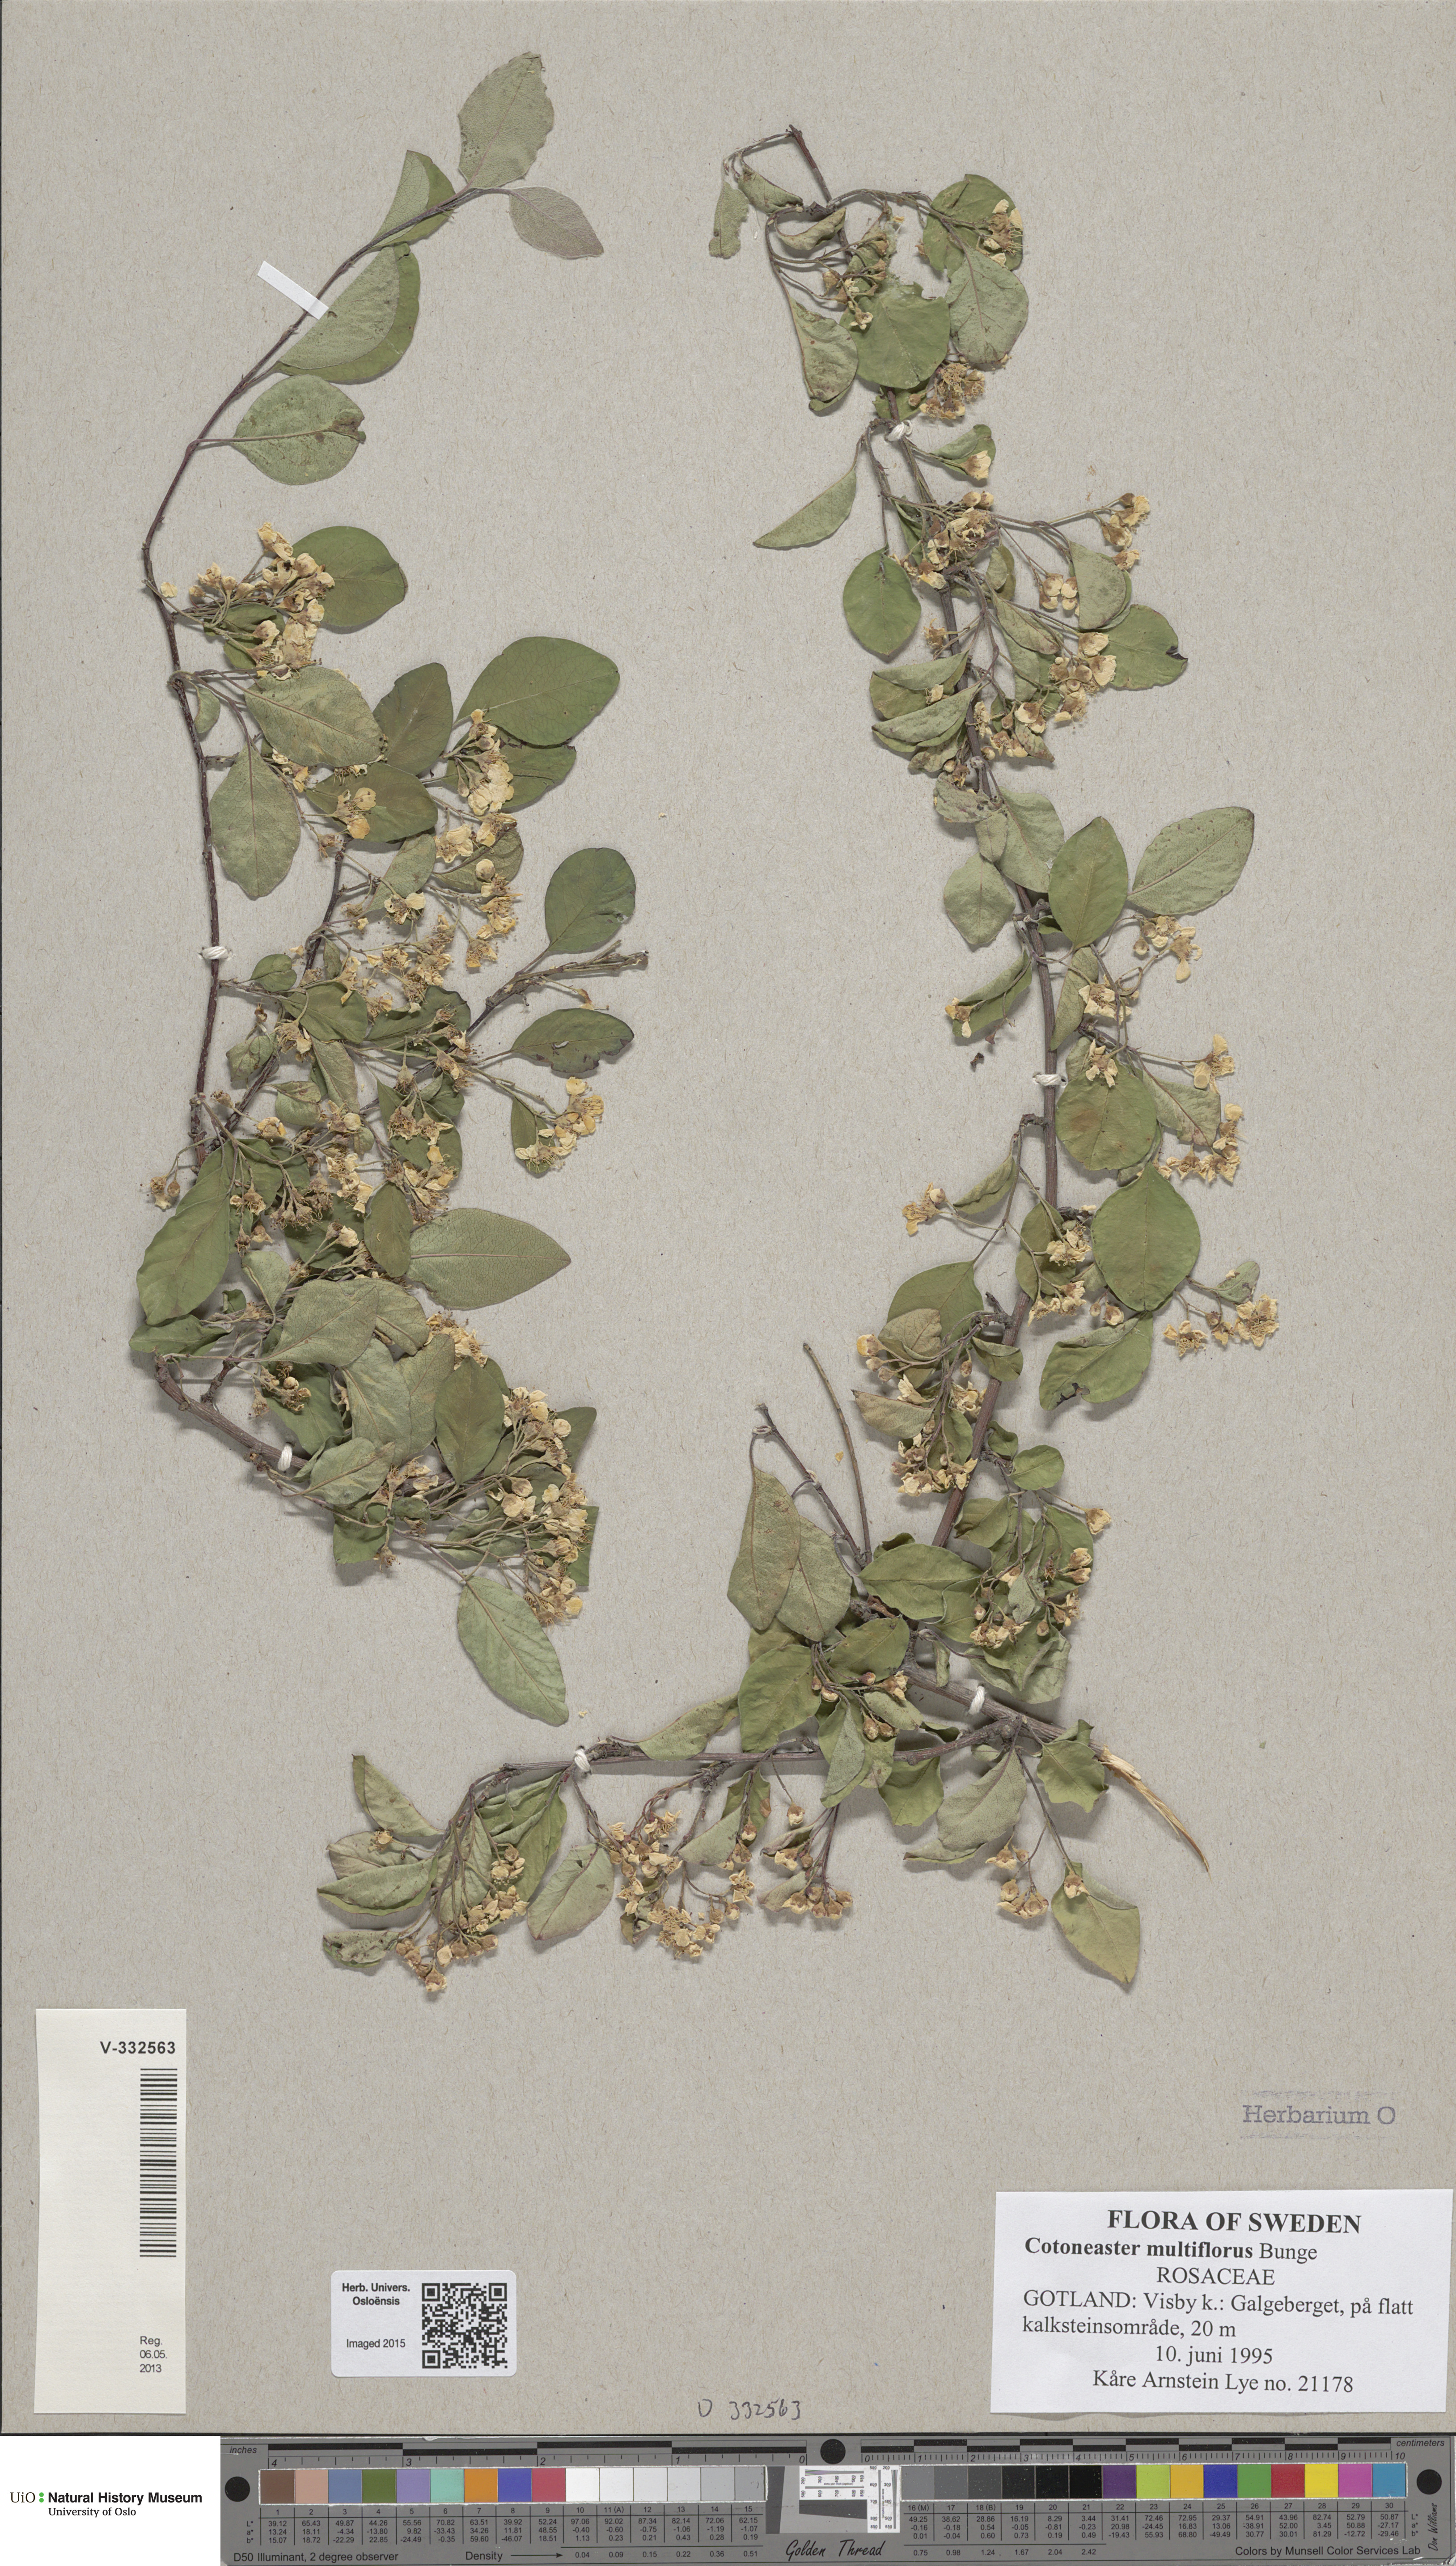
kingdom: Plantae
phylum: Tracheophyta
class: Magnoliopsida
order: Rosales
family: Rosaceae
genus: Cotoneaster
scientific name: Cotoneaster multiflorus
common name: Cotoneaster
